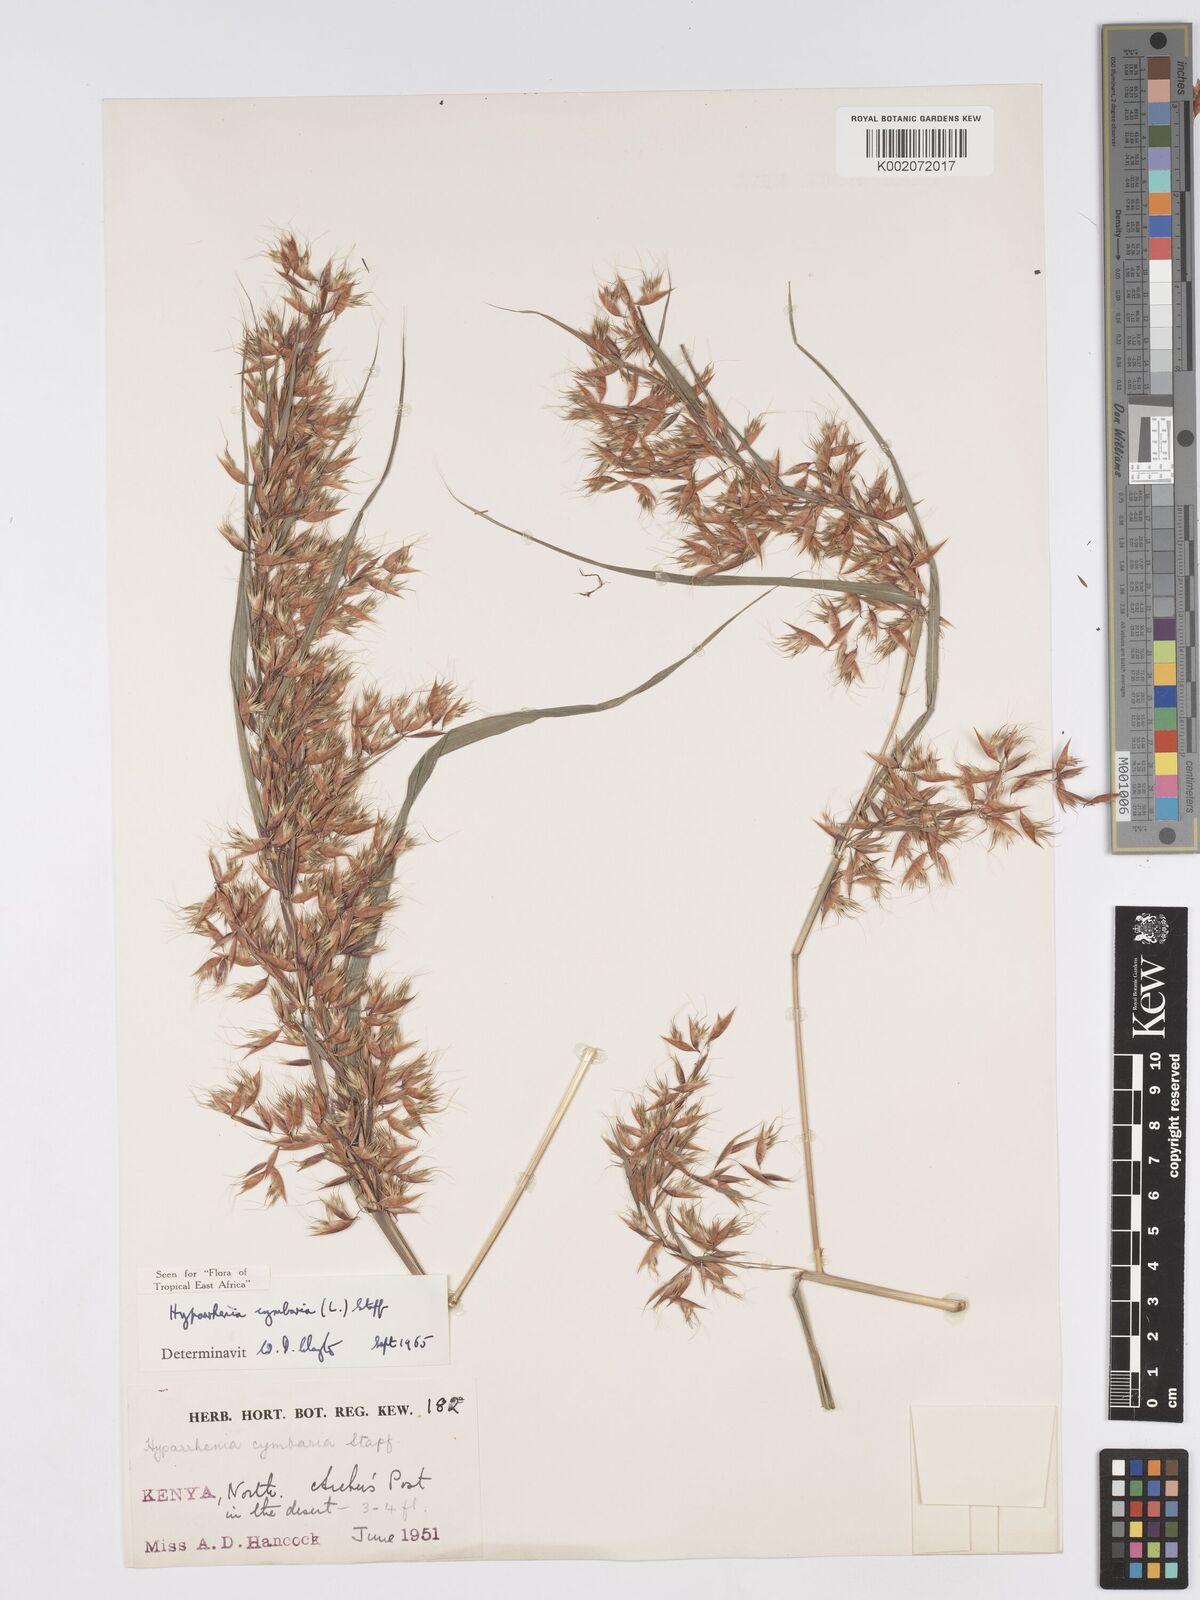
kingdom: Plantae
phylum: Tracheophyta
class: Liliopsida
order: Poales
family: Poaceae
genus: Hyparrhenia
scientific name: Hyparrhenia cymbaria
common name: Boat thatching grass
